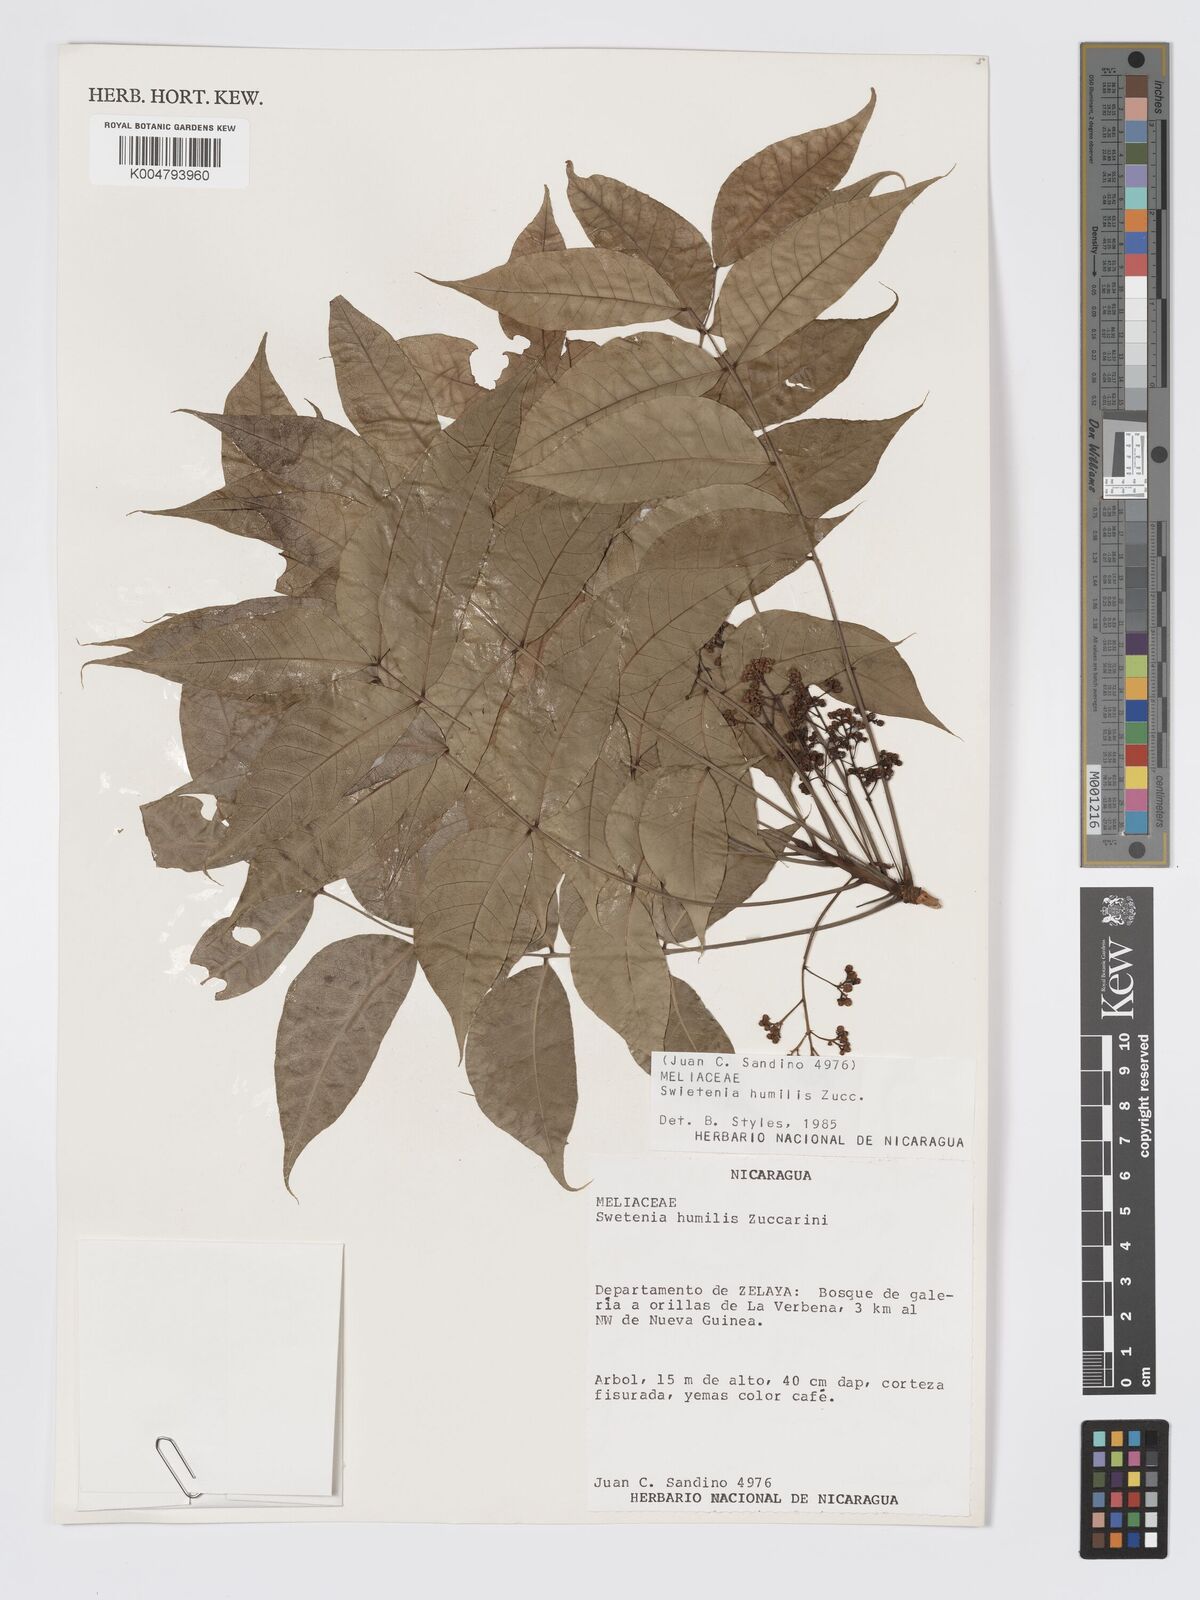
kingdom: Plantae
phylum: Tracheophyta
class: Magnoliopsida
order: Sapindales
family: Meliaceae
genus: Swietenia
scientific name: Swietenia humilis
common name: Pacific coast mahogany
